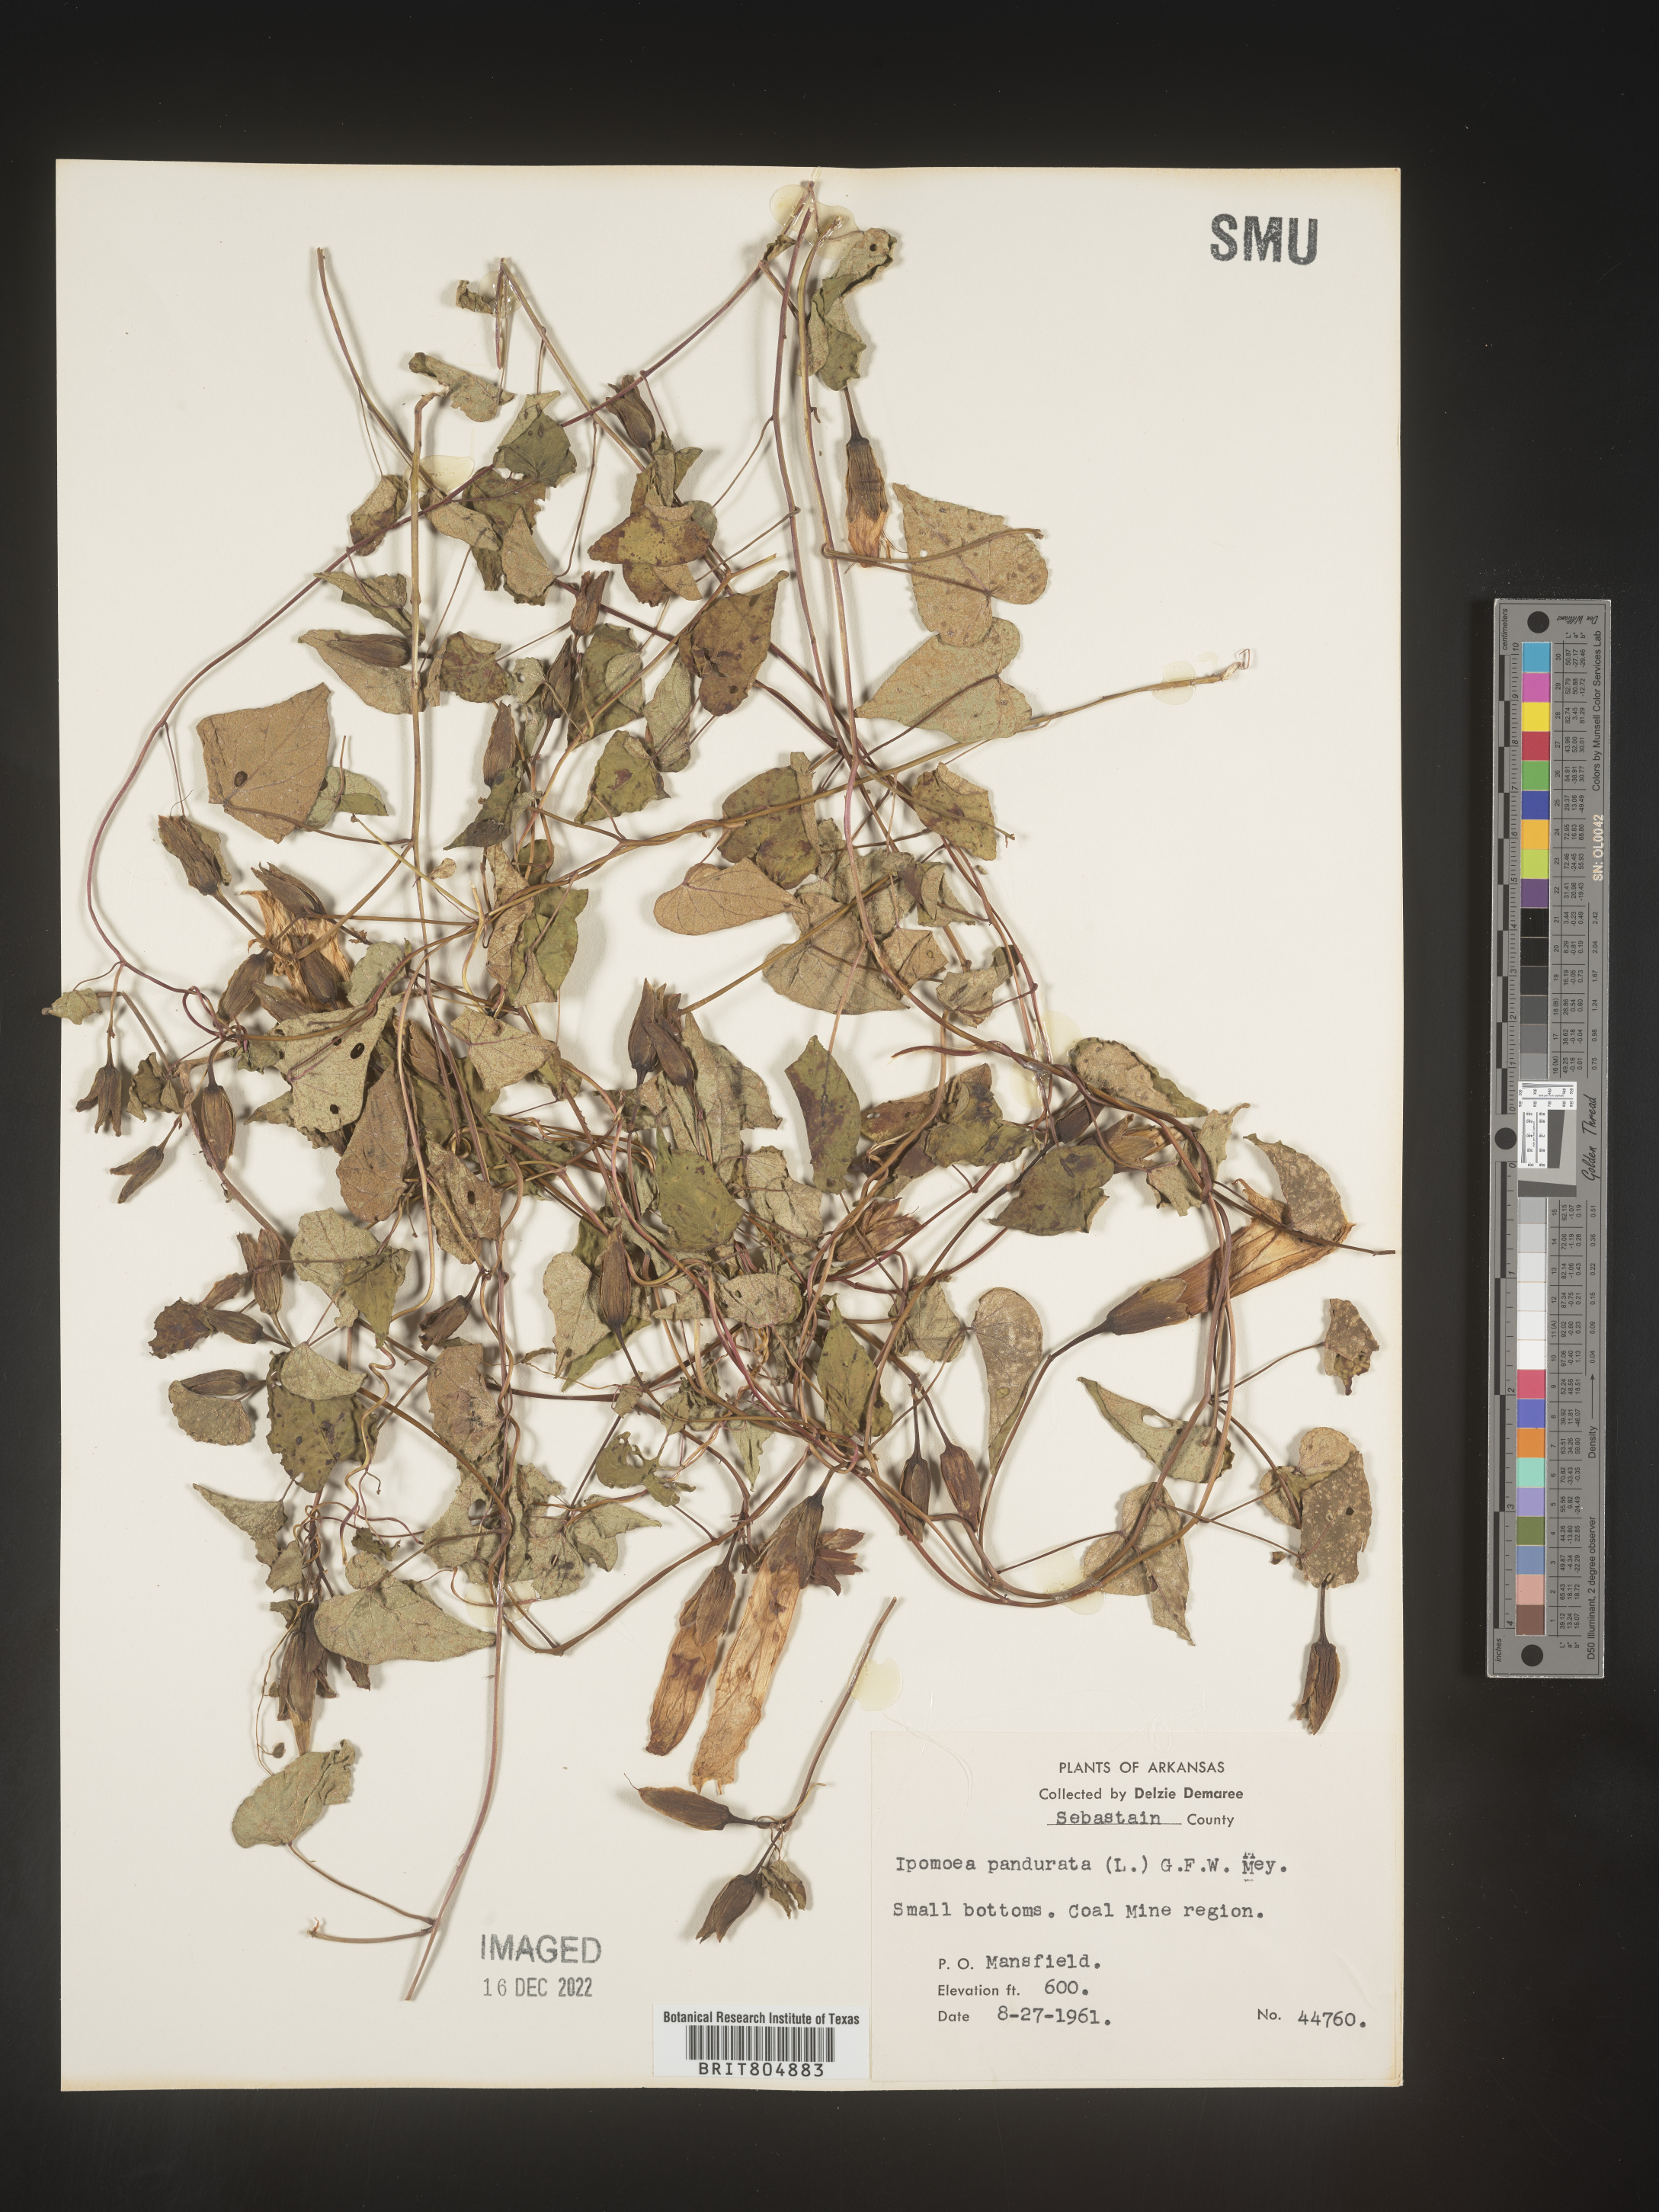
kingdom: Plantae
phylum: Tracheophyta
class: Magnoliopsida
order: Solanales
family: Convolvulaceae
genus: Ipomoea
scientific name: Ipomoea pandurata
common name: Man-of-the-earth
